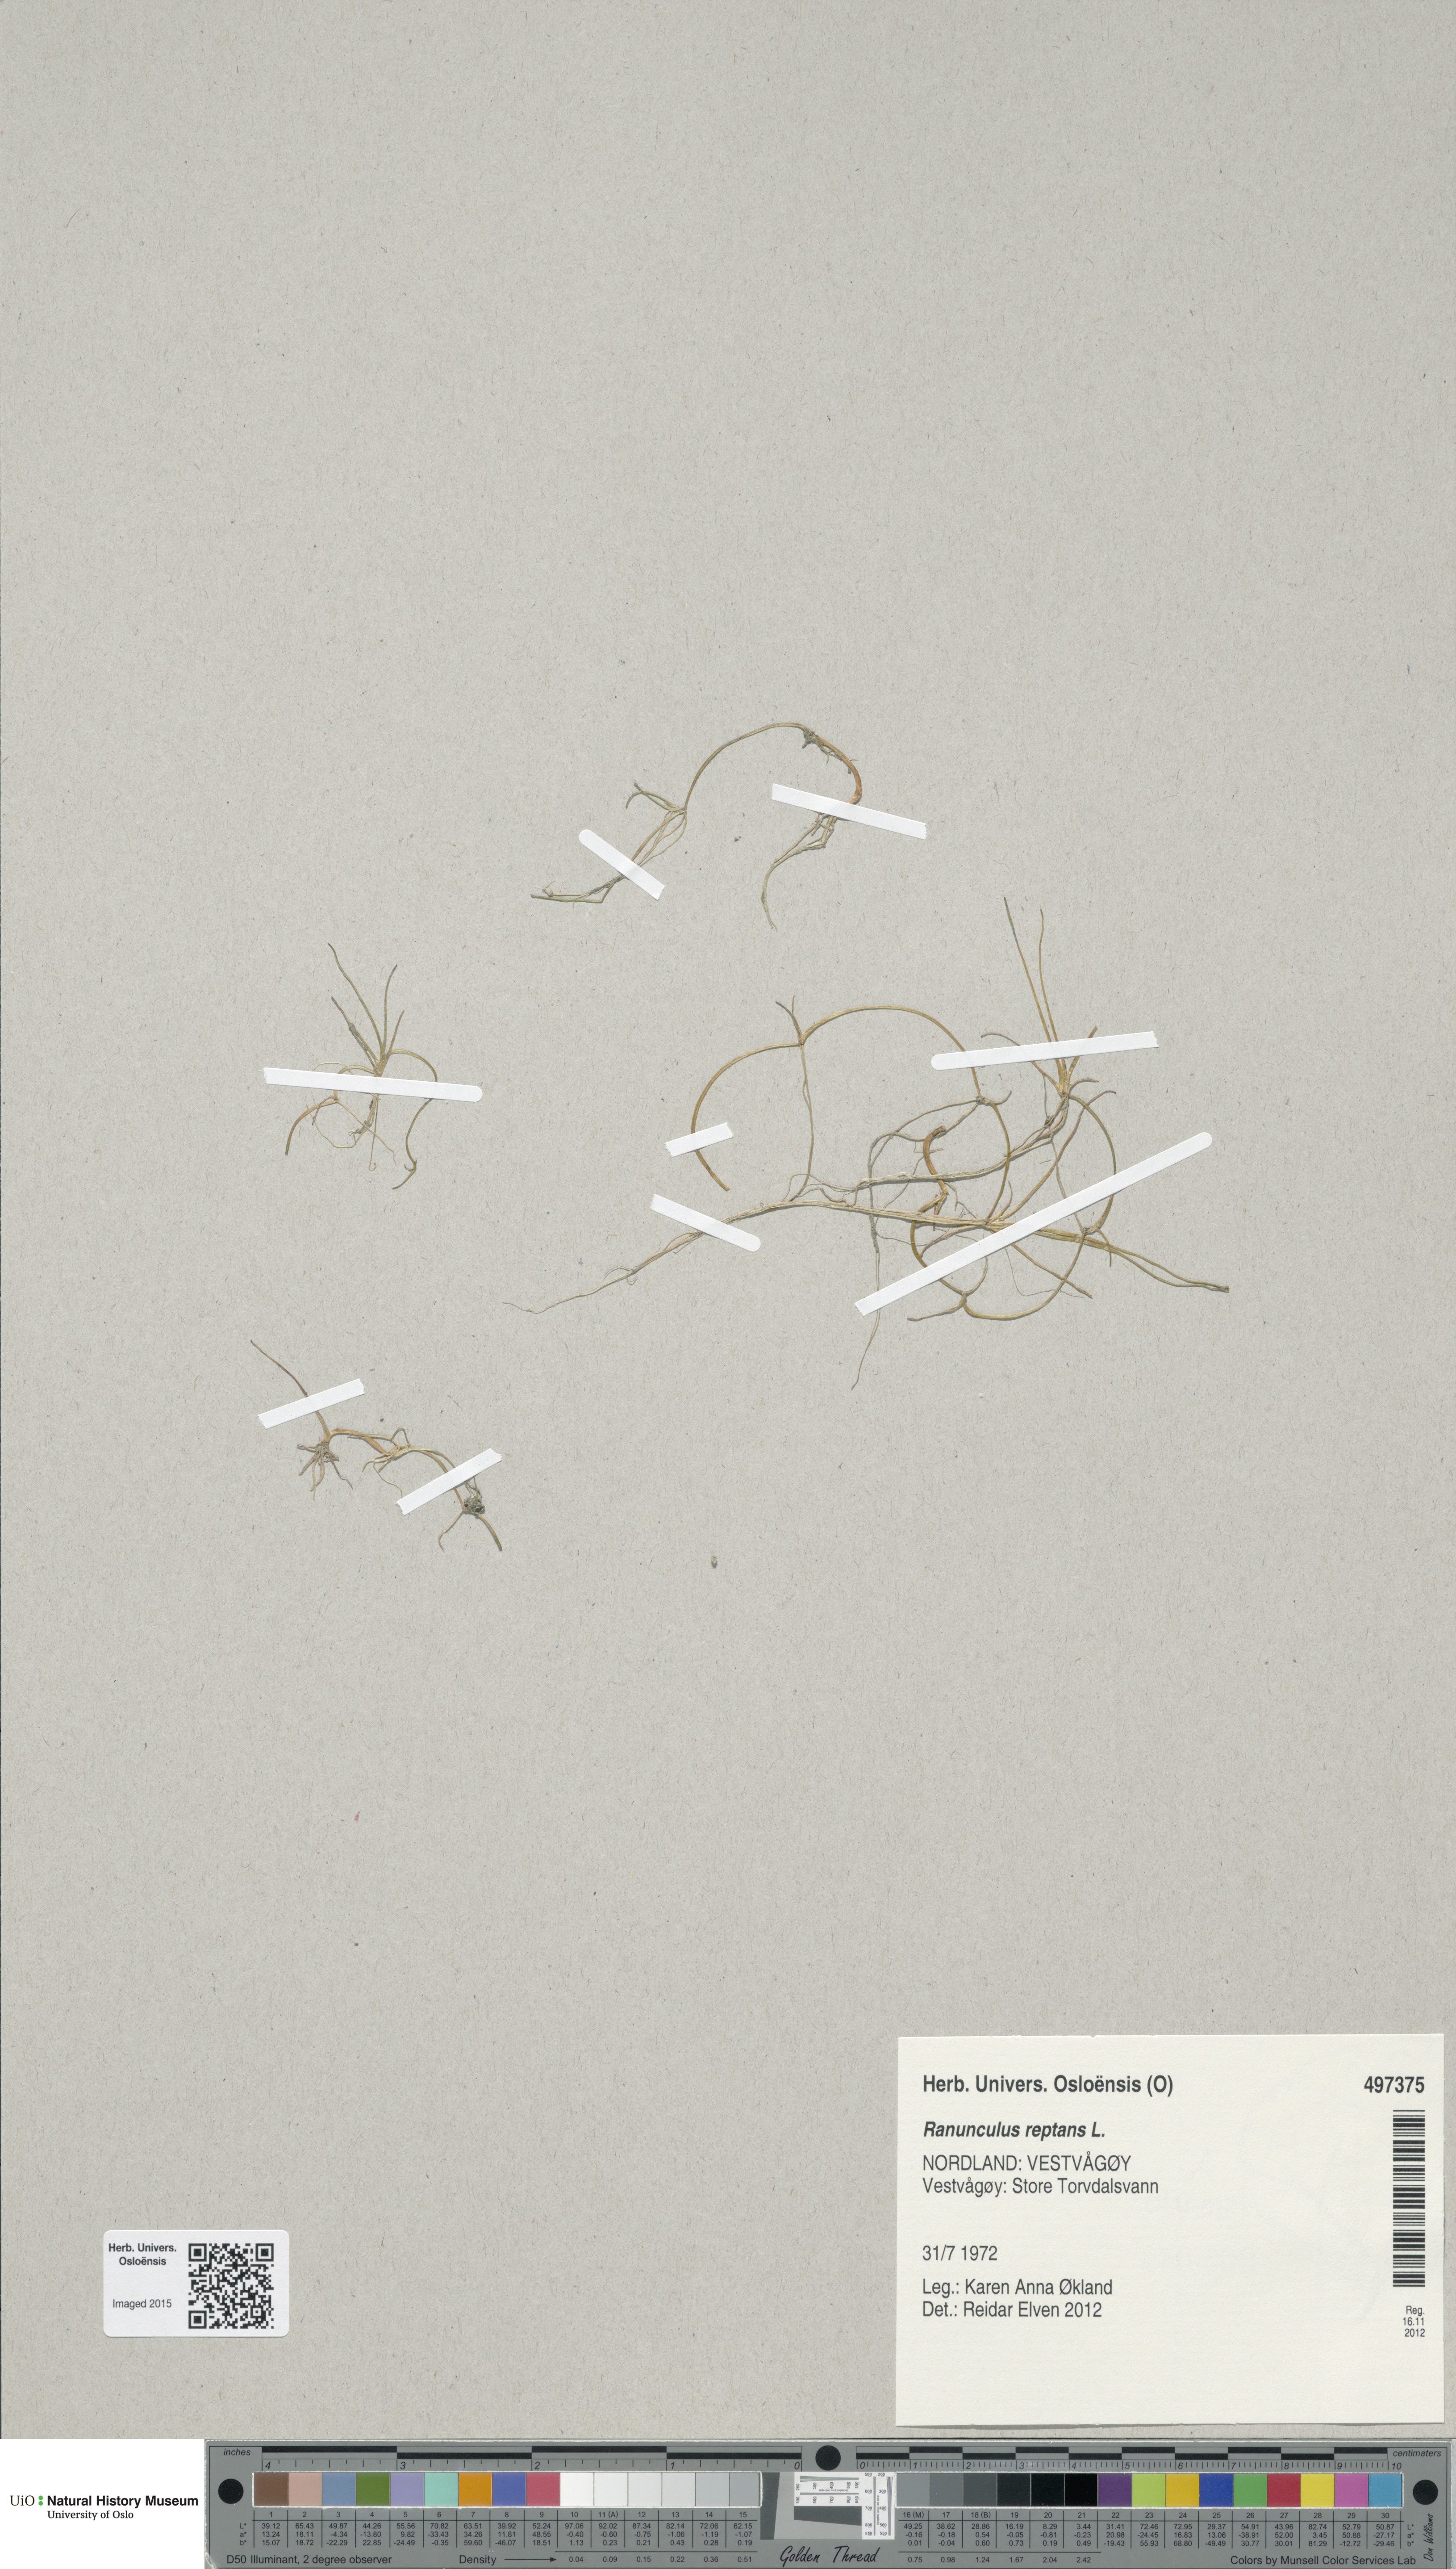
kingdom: Plantae
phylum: Tracheophyta
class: Magnoliopsida
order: Ranunculales
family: Ranunculaceae
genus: Ranunculus
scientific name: Ranunculus reptans
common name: Creeping spearwort
